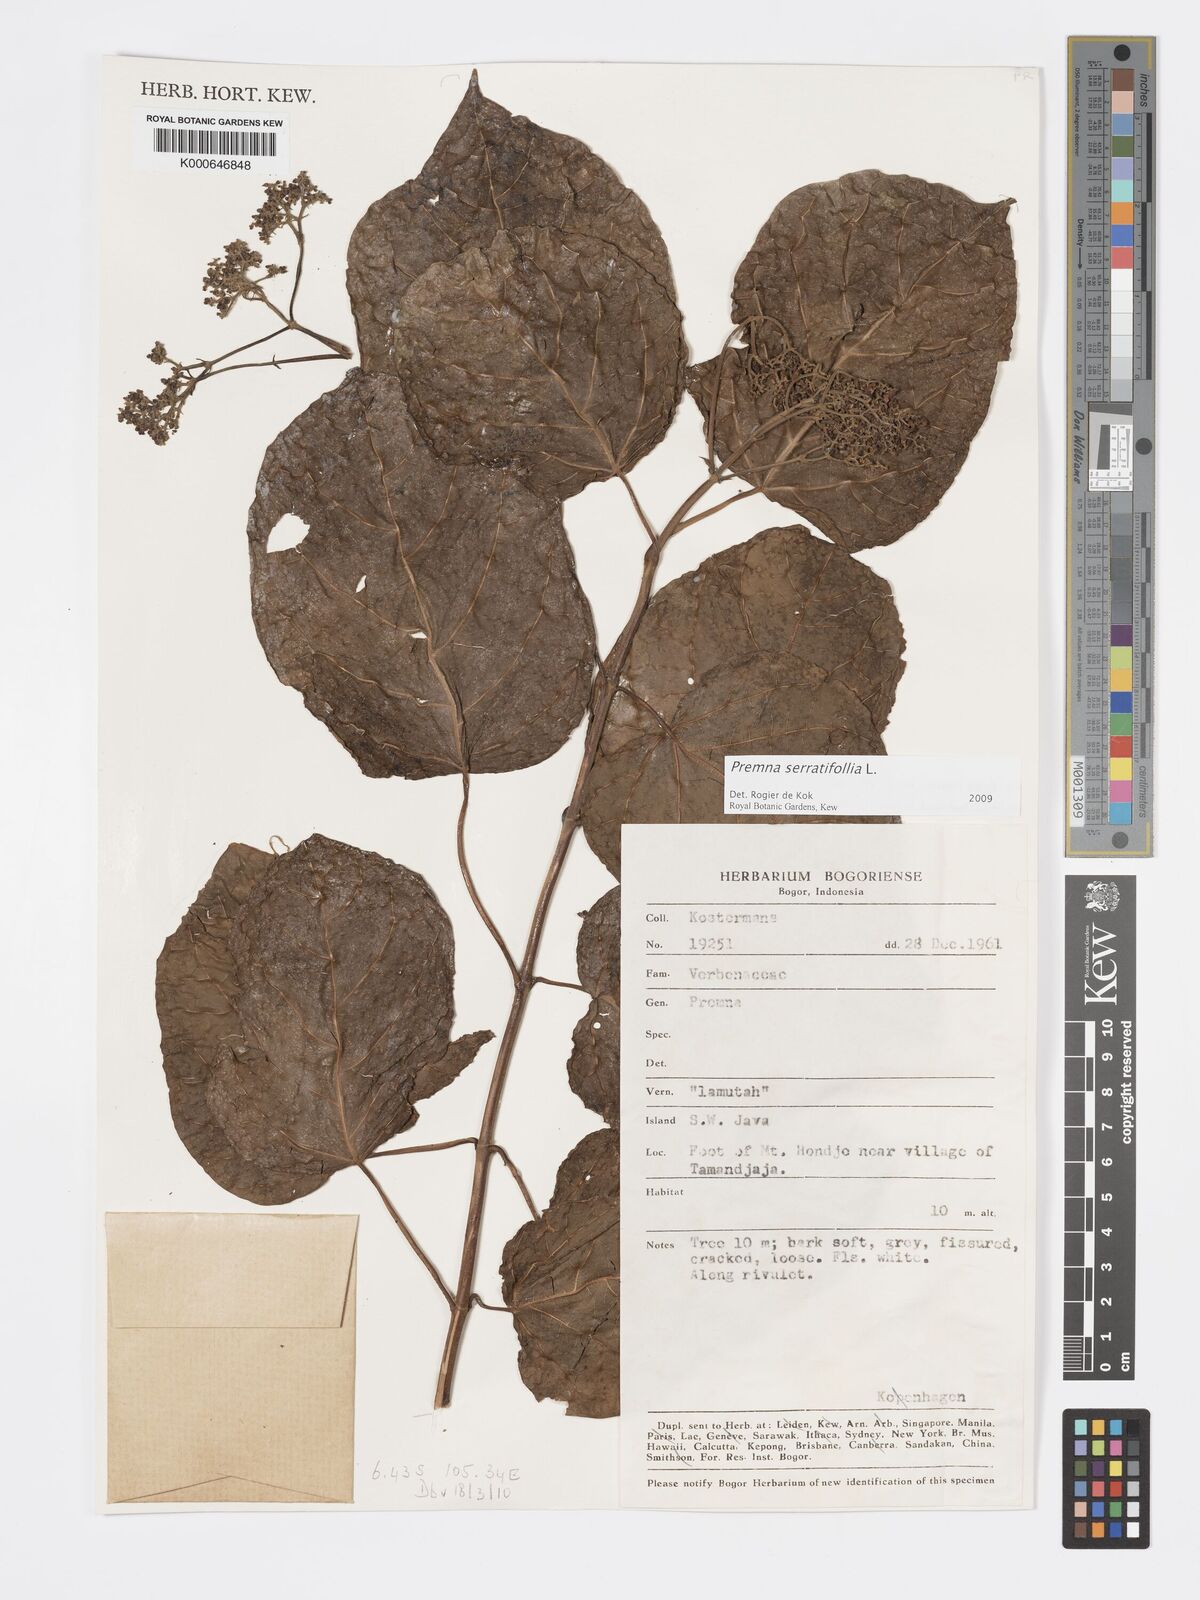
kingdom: Plantae
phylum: Tracheophyta
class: Magnoliopsida
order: Lamiales
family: Lamiaceae
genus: Premna
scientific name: Premna serratifolia
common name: Bastard guelder
